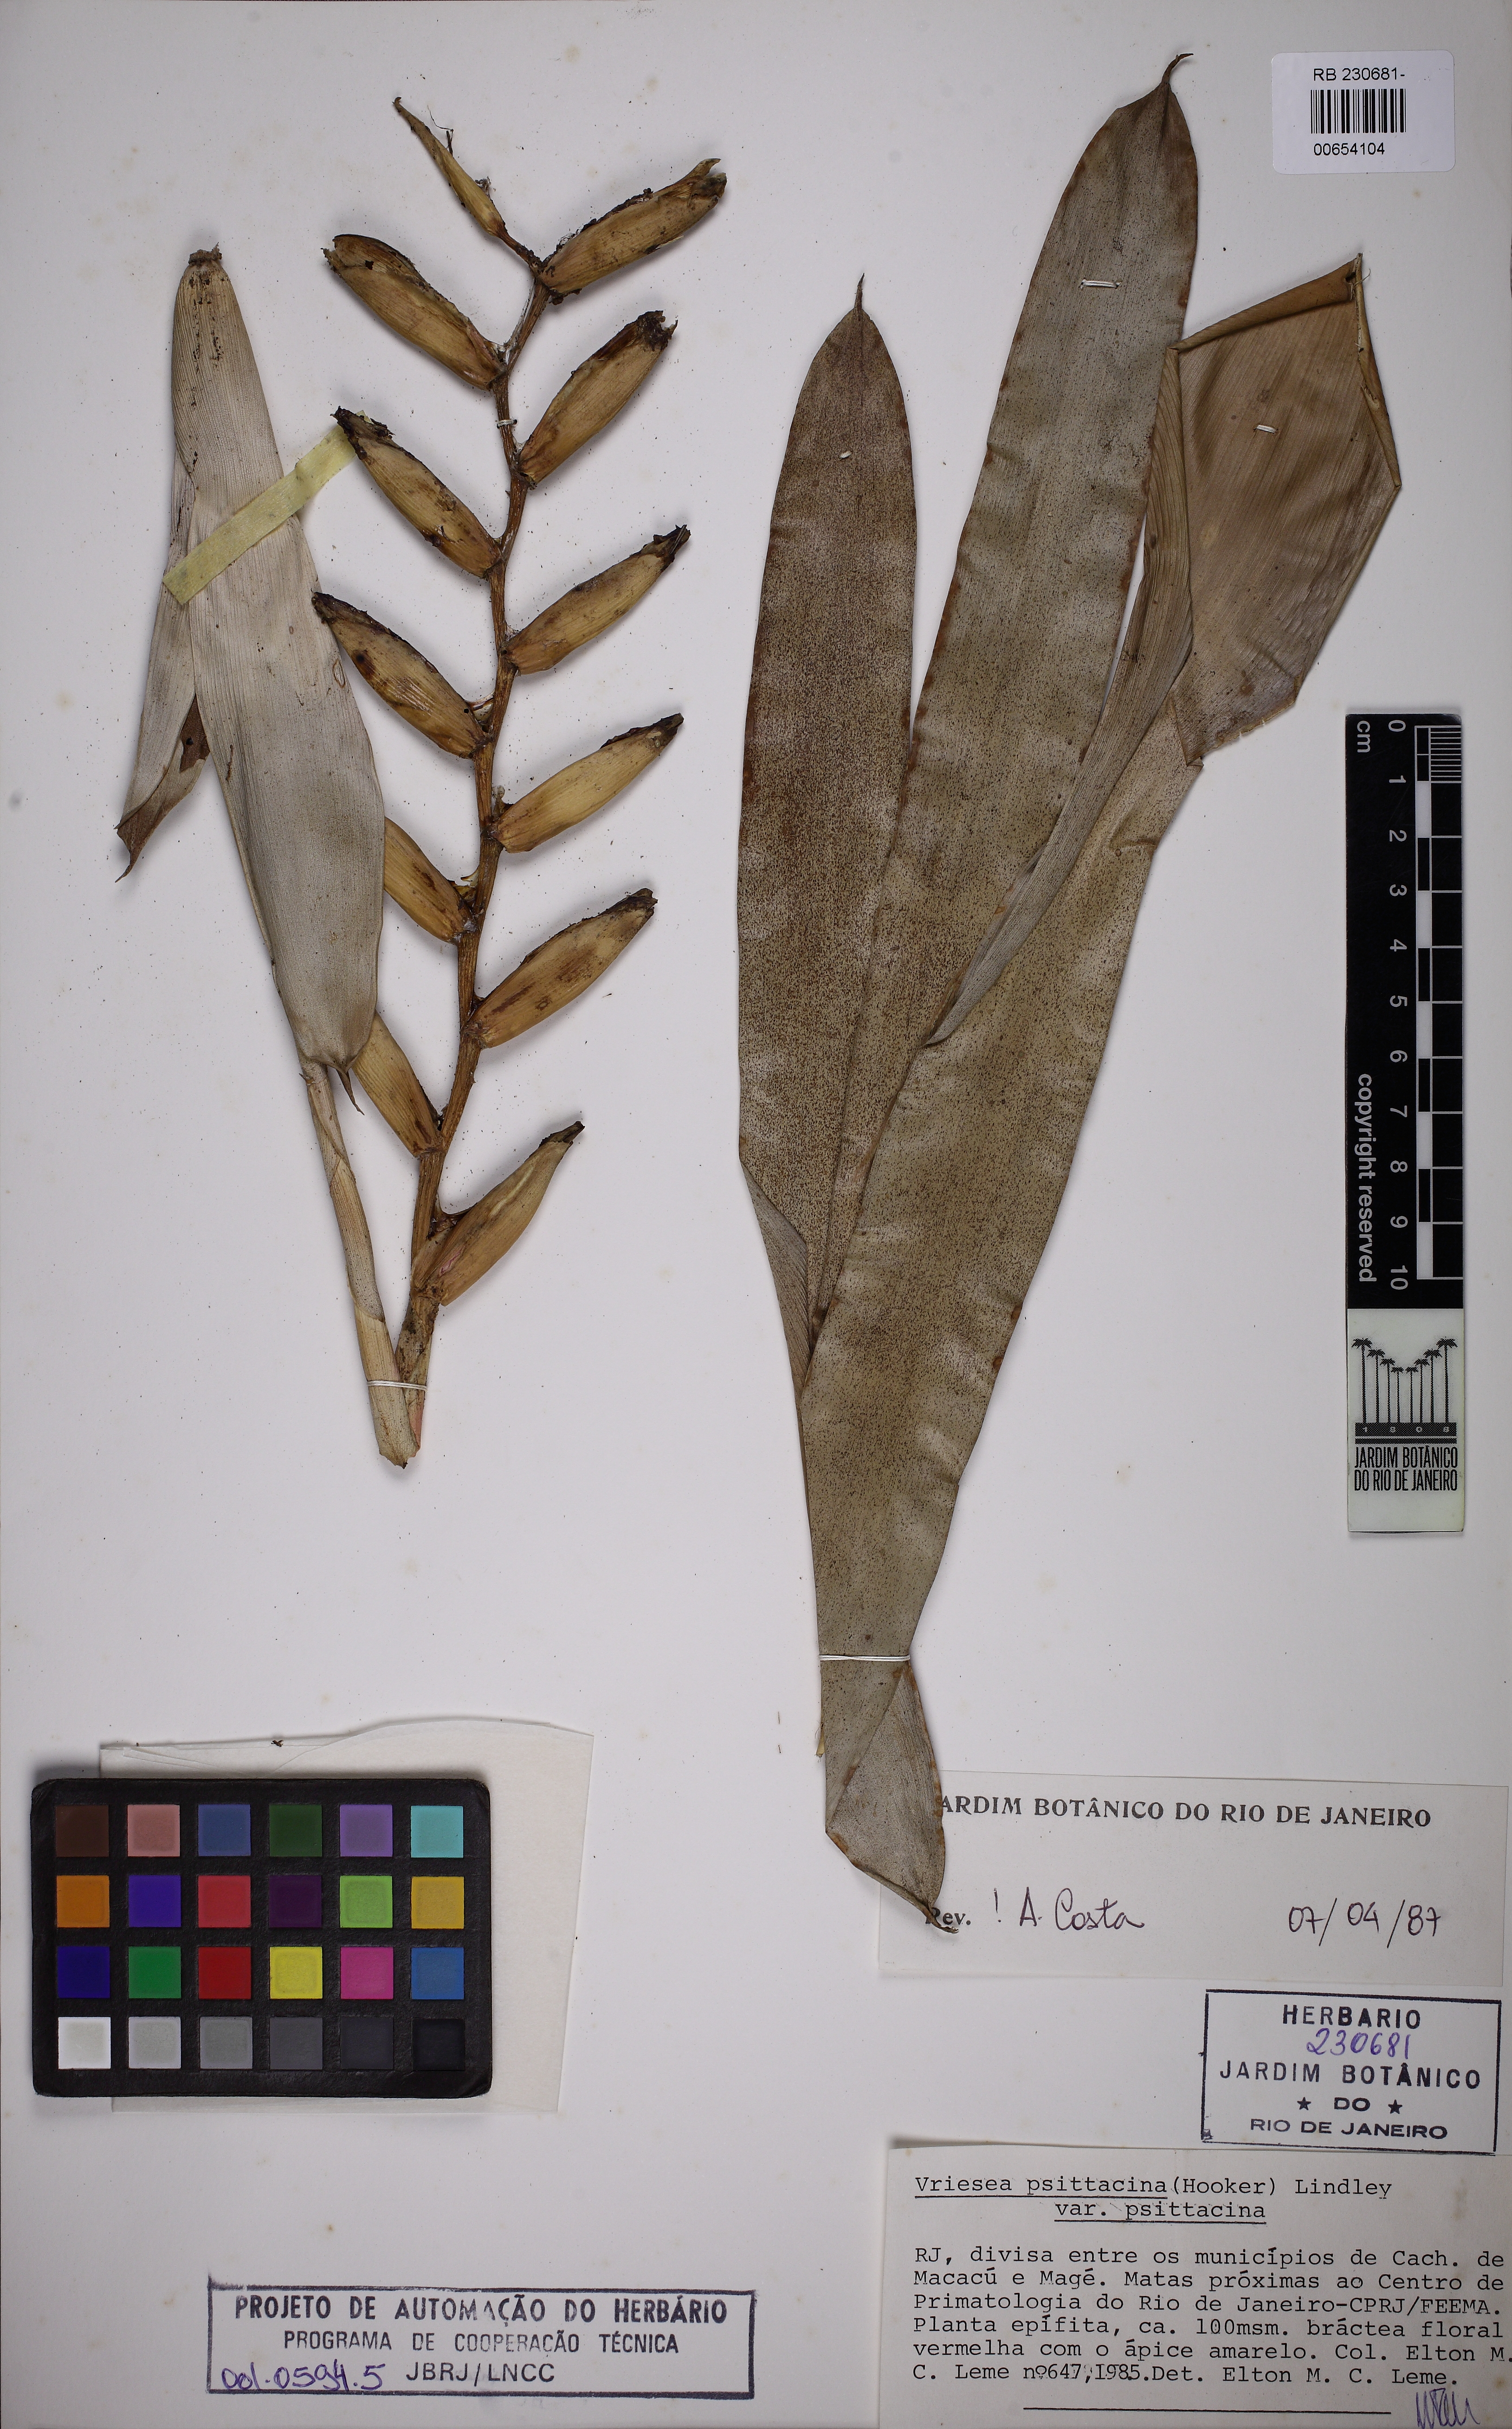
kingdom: Plantae
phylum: Tracheophyta
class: Liliopsida
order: Poales
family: Bromeliaceae
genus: Vriesea
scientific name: Vriesea psittacina
